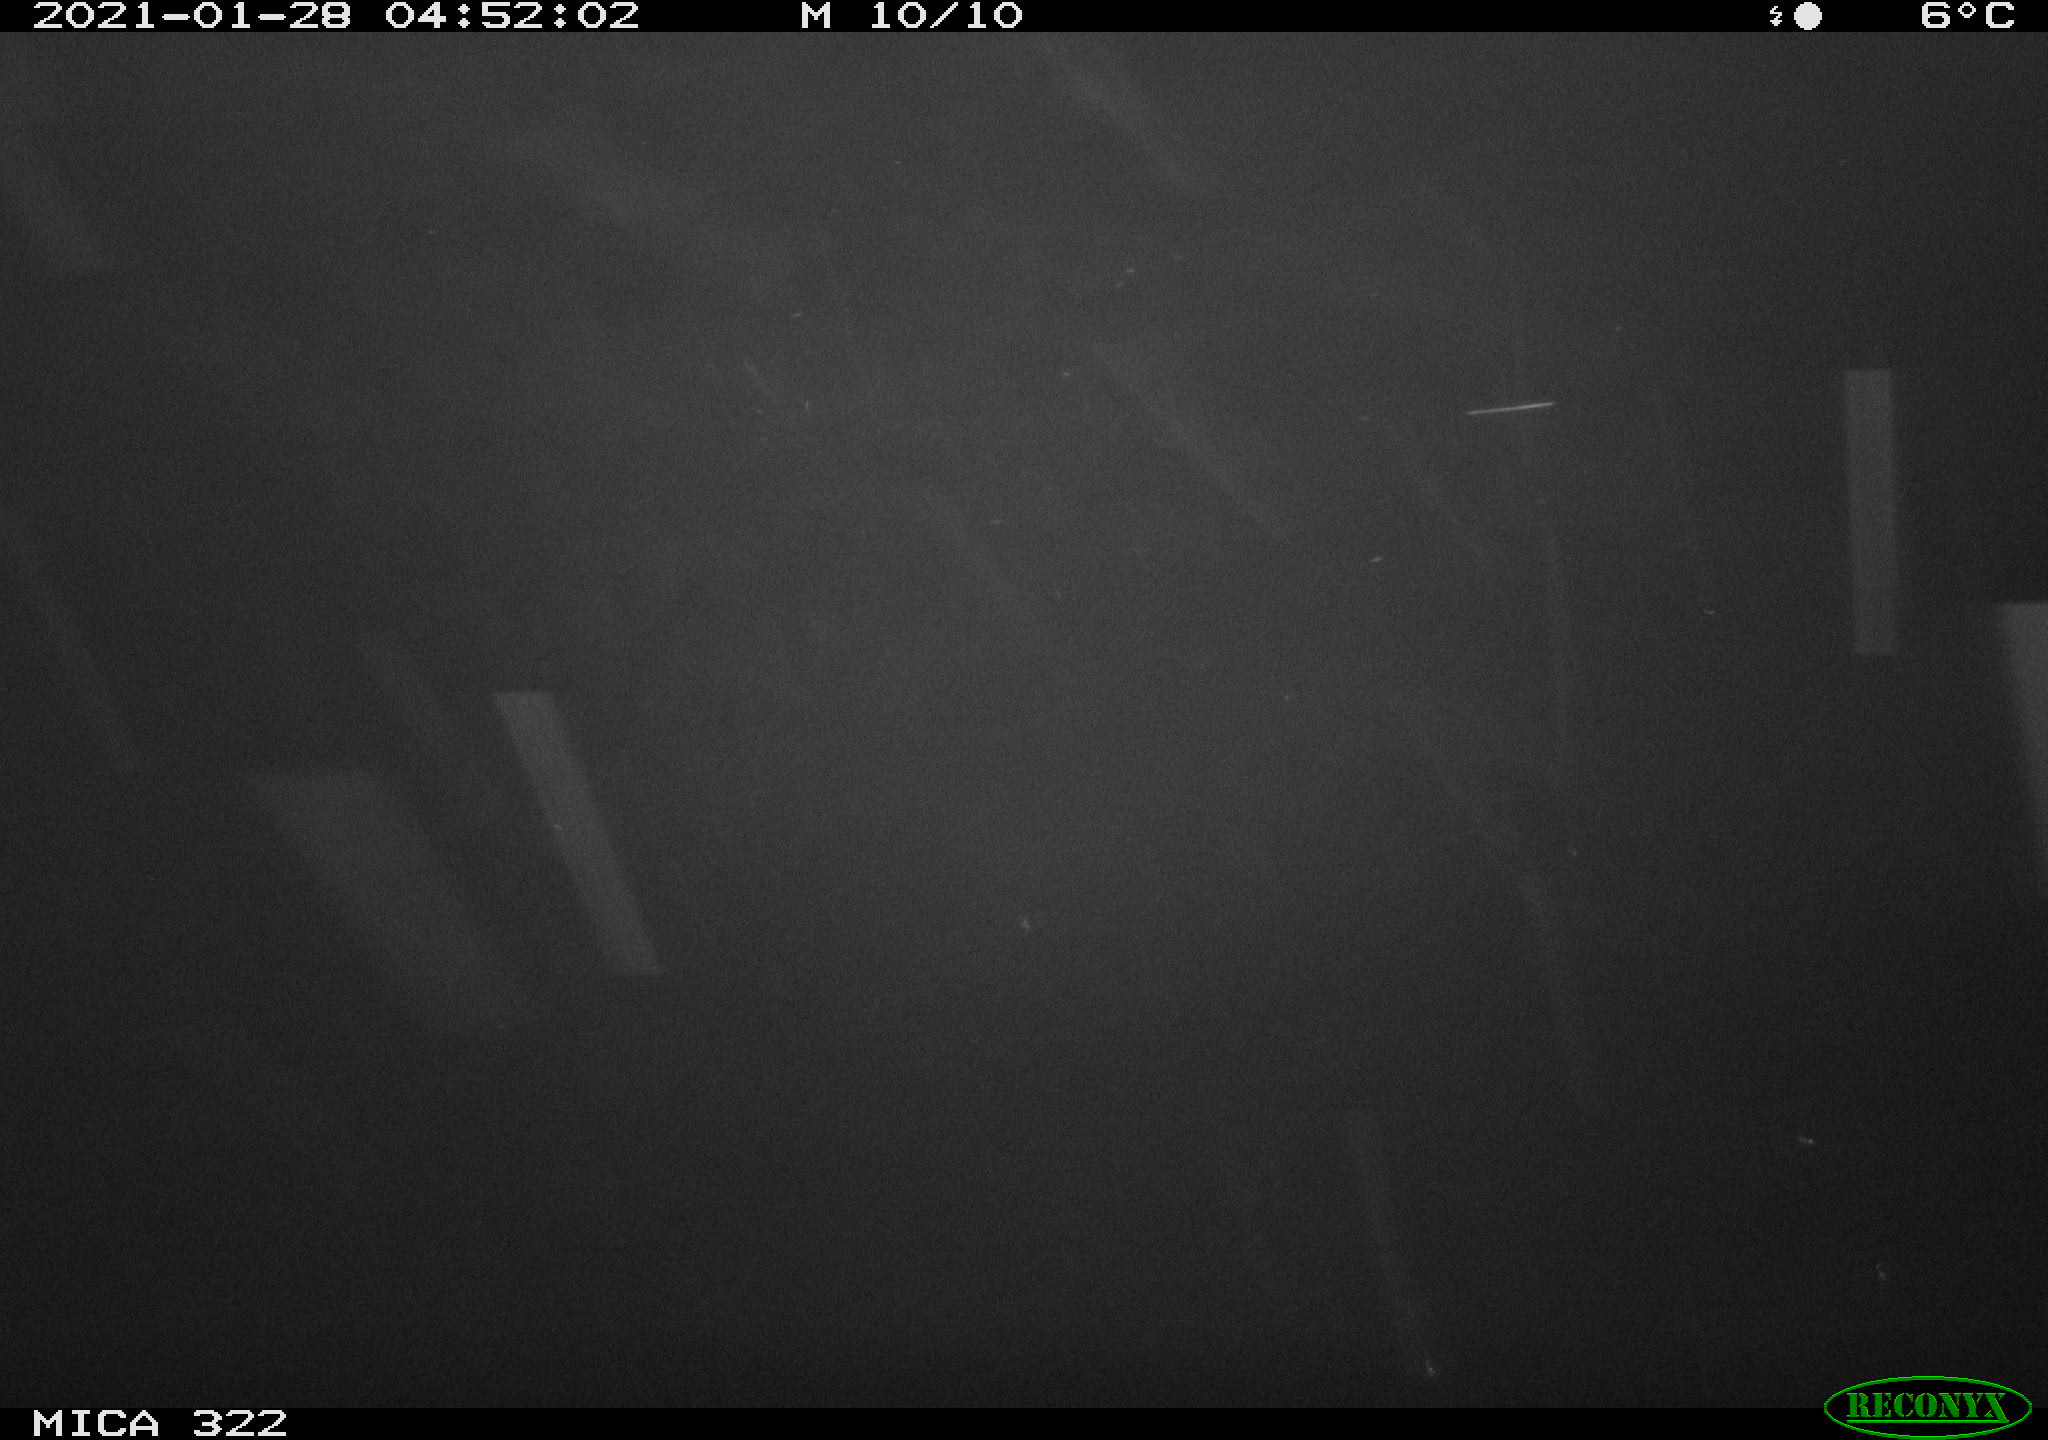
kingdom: Animalia
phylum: Chordata
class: Mammalia
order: Rodentia
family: Muridae
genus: Rattus
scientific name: Rattus norvegicus
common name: Brown rat
